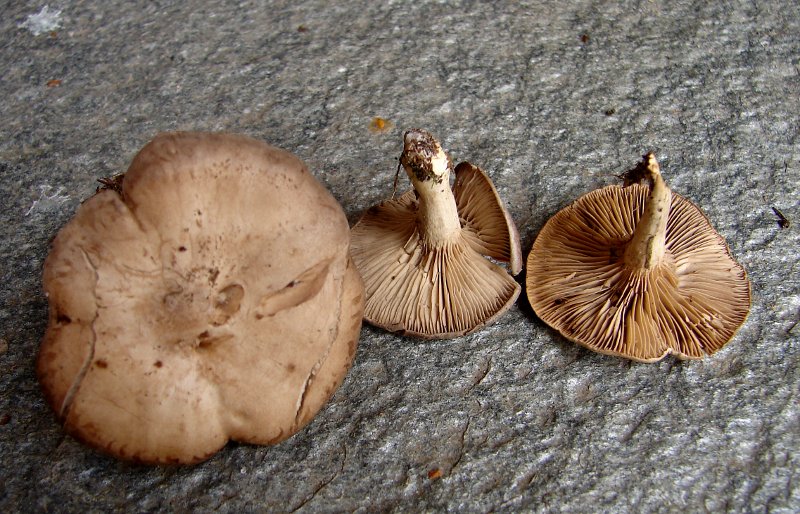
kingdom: Fungi
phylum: Basidiomycota
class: Agaricomycetes
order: Agaricales
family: Tricholomataceae
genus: Lulesia
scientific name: Lulesia
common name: sortnende troldhat
